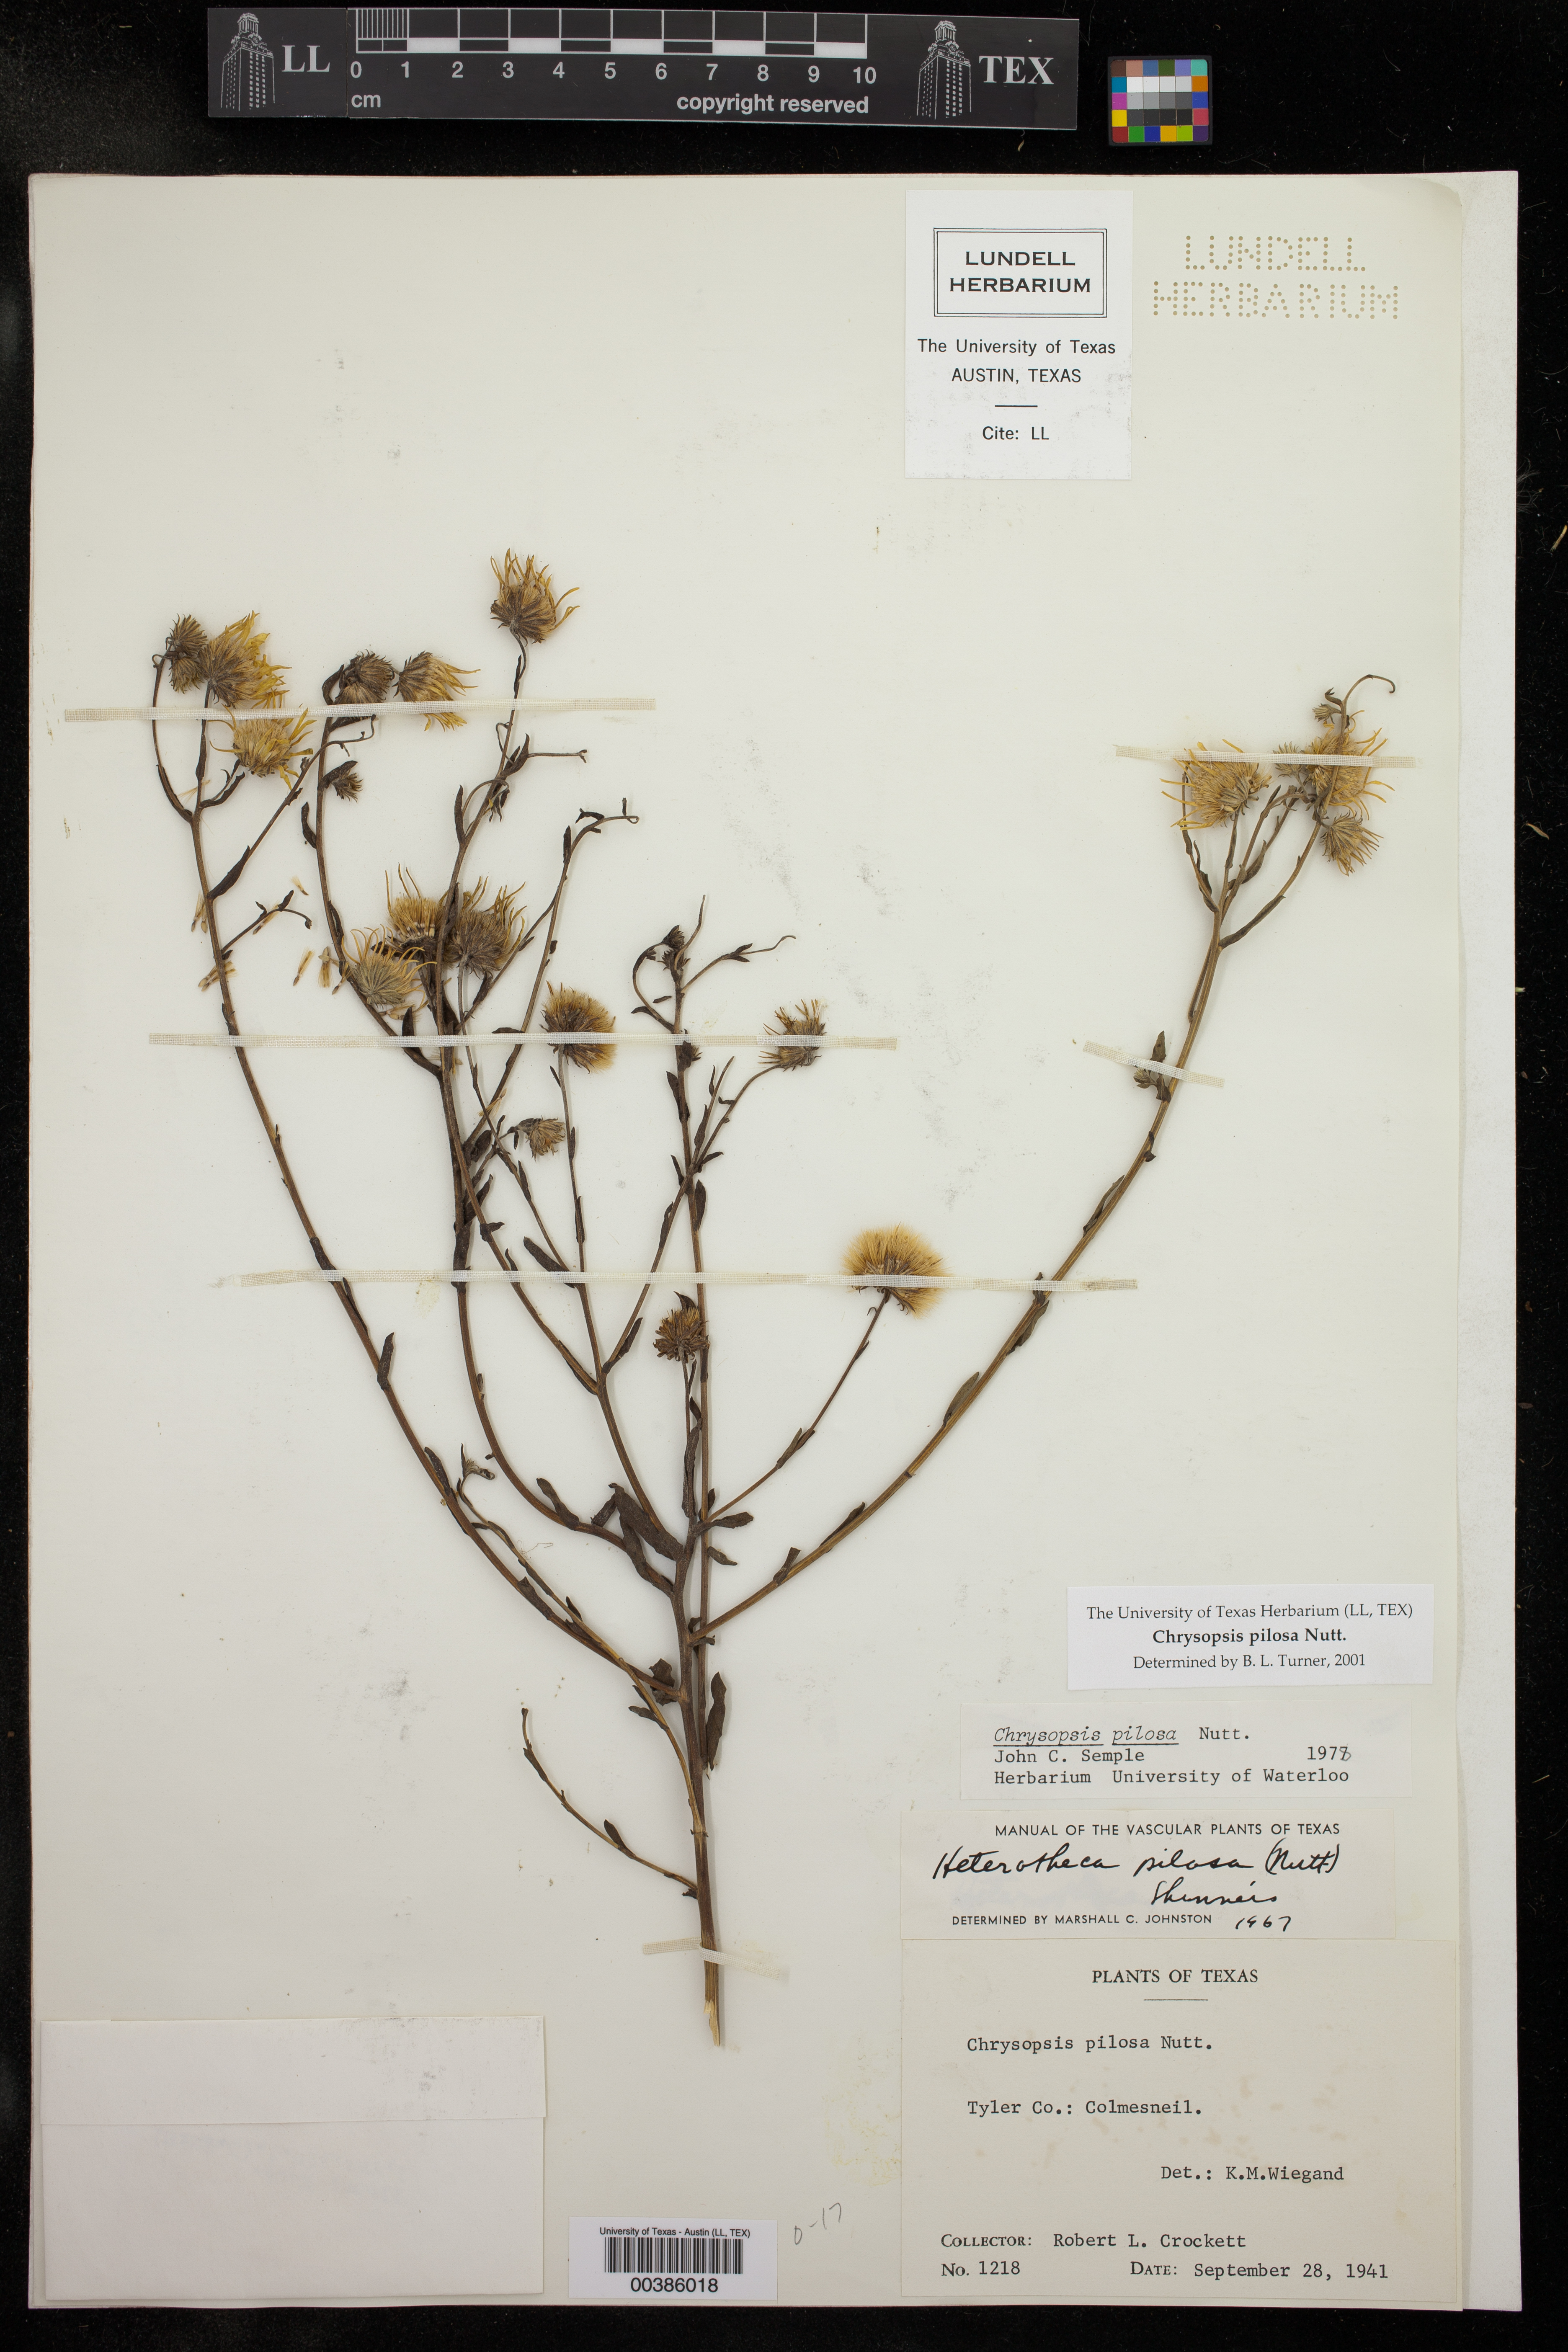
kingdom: Plantae
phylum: Tracheophyta
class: Magnoliopsida
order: Asterales
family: Asteraceae
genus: Chrysopsis
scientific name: Chrysopsis gossypina
